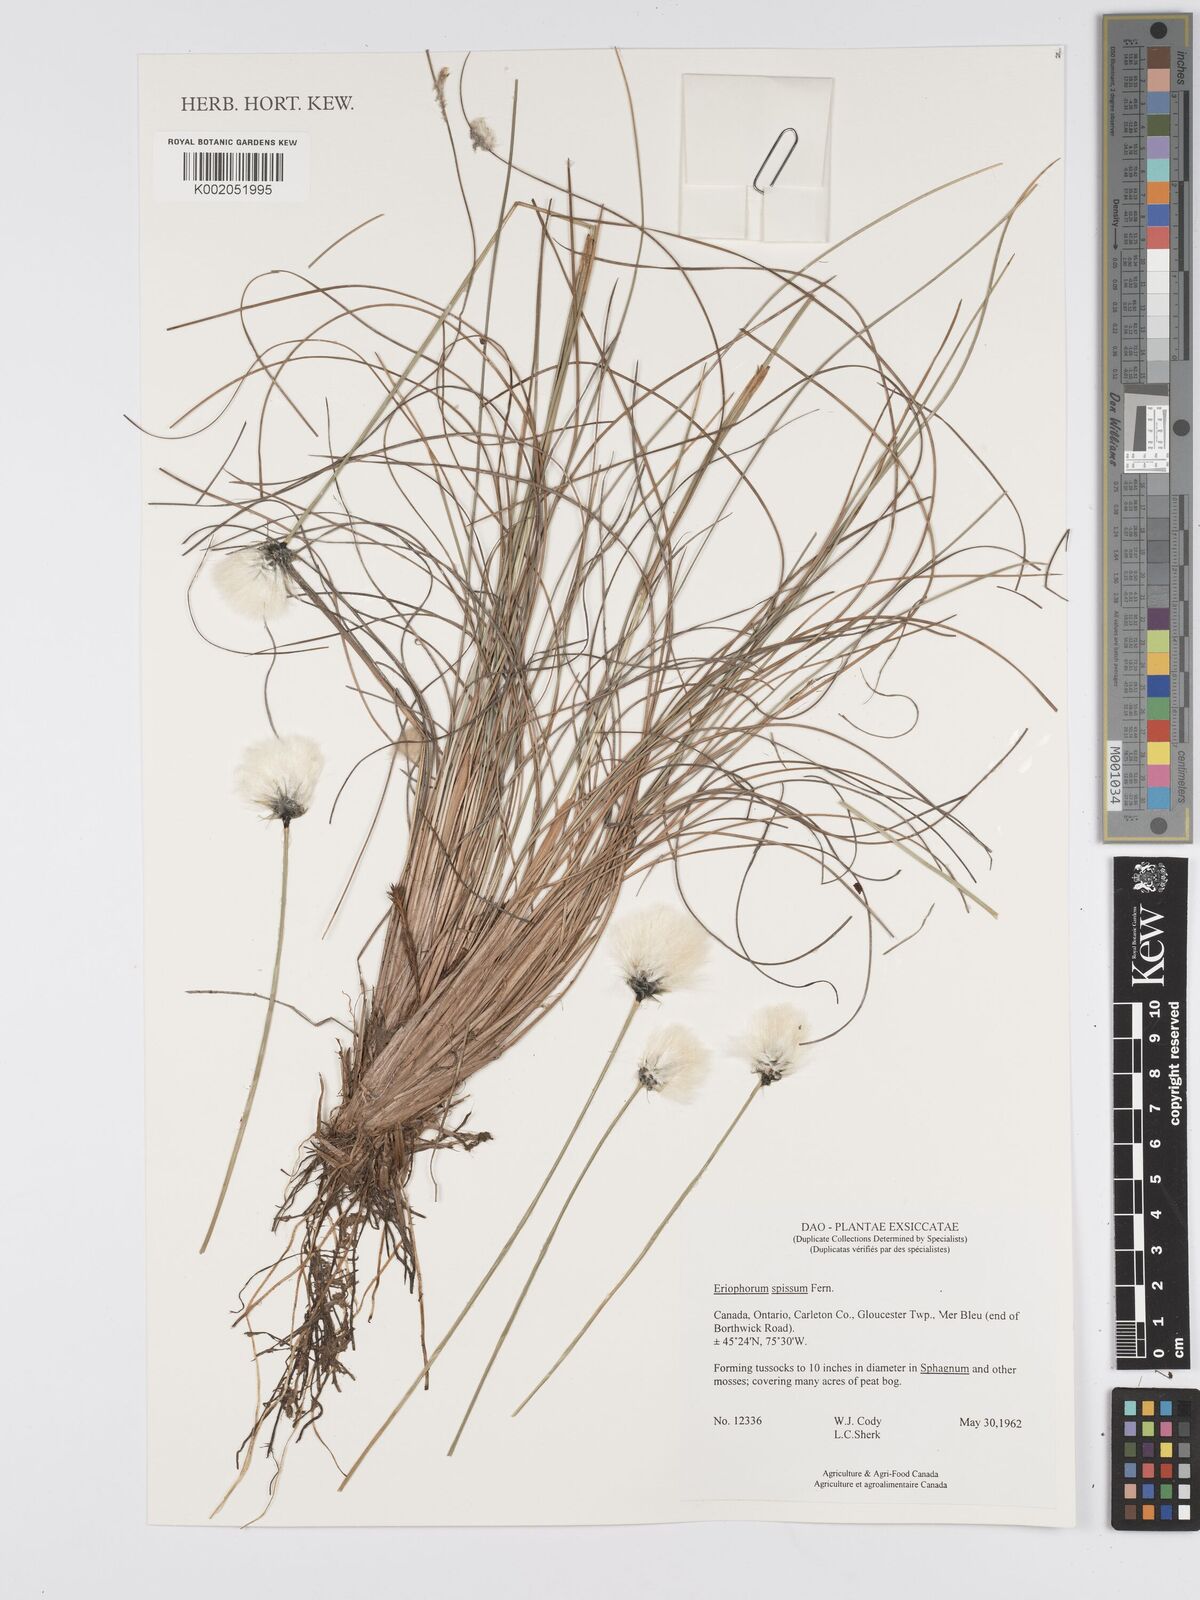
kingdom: Plantae
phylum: Tracheophyta
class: Liliopsida
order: Poales
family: Cyperaceae
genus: Eriophorum
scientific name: Eriophorum vaginatum
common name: Hare's-tail cottongrass
